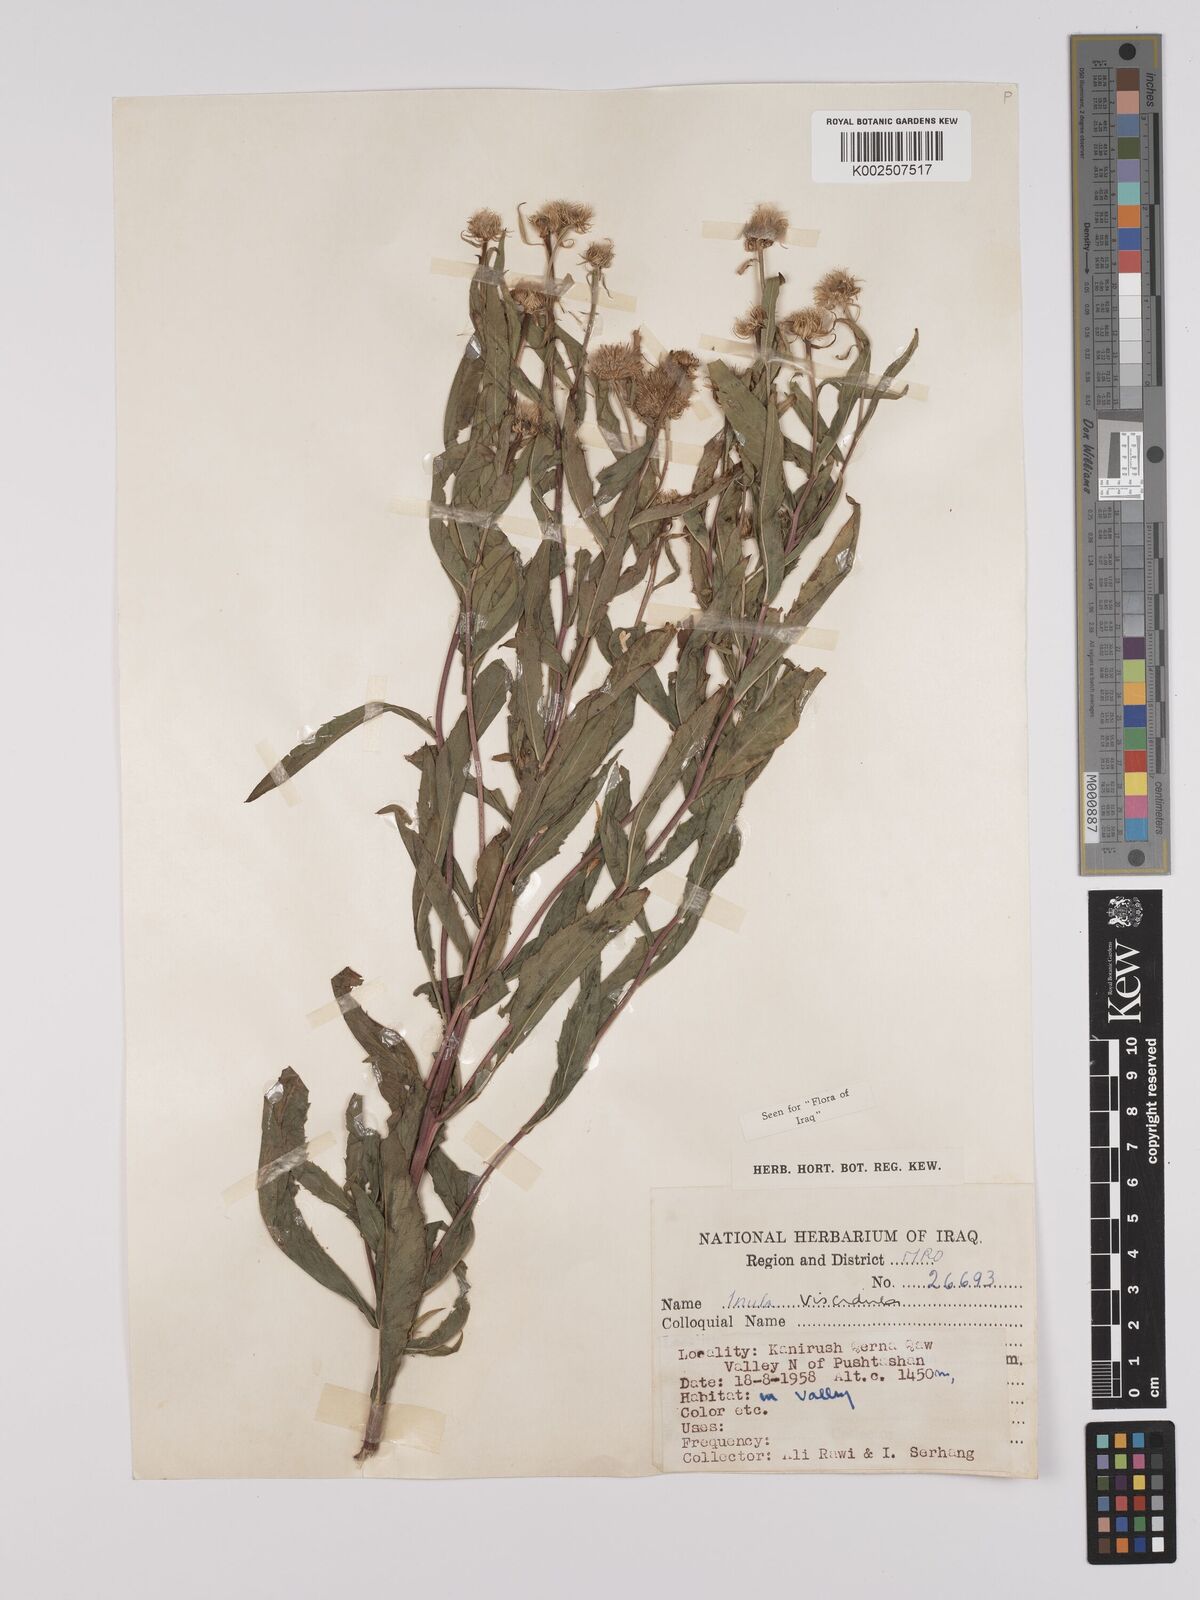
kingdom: Plantae
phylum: Tracheophyta
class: Magnoliopsida
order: Asterales
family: Asteraceae
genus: Inula
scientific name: Inula
